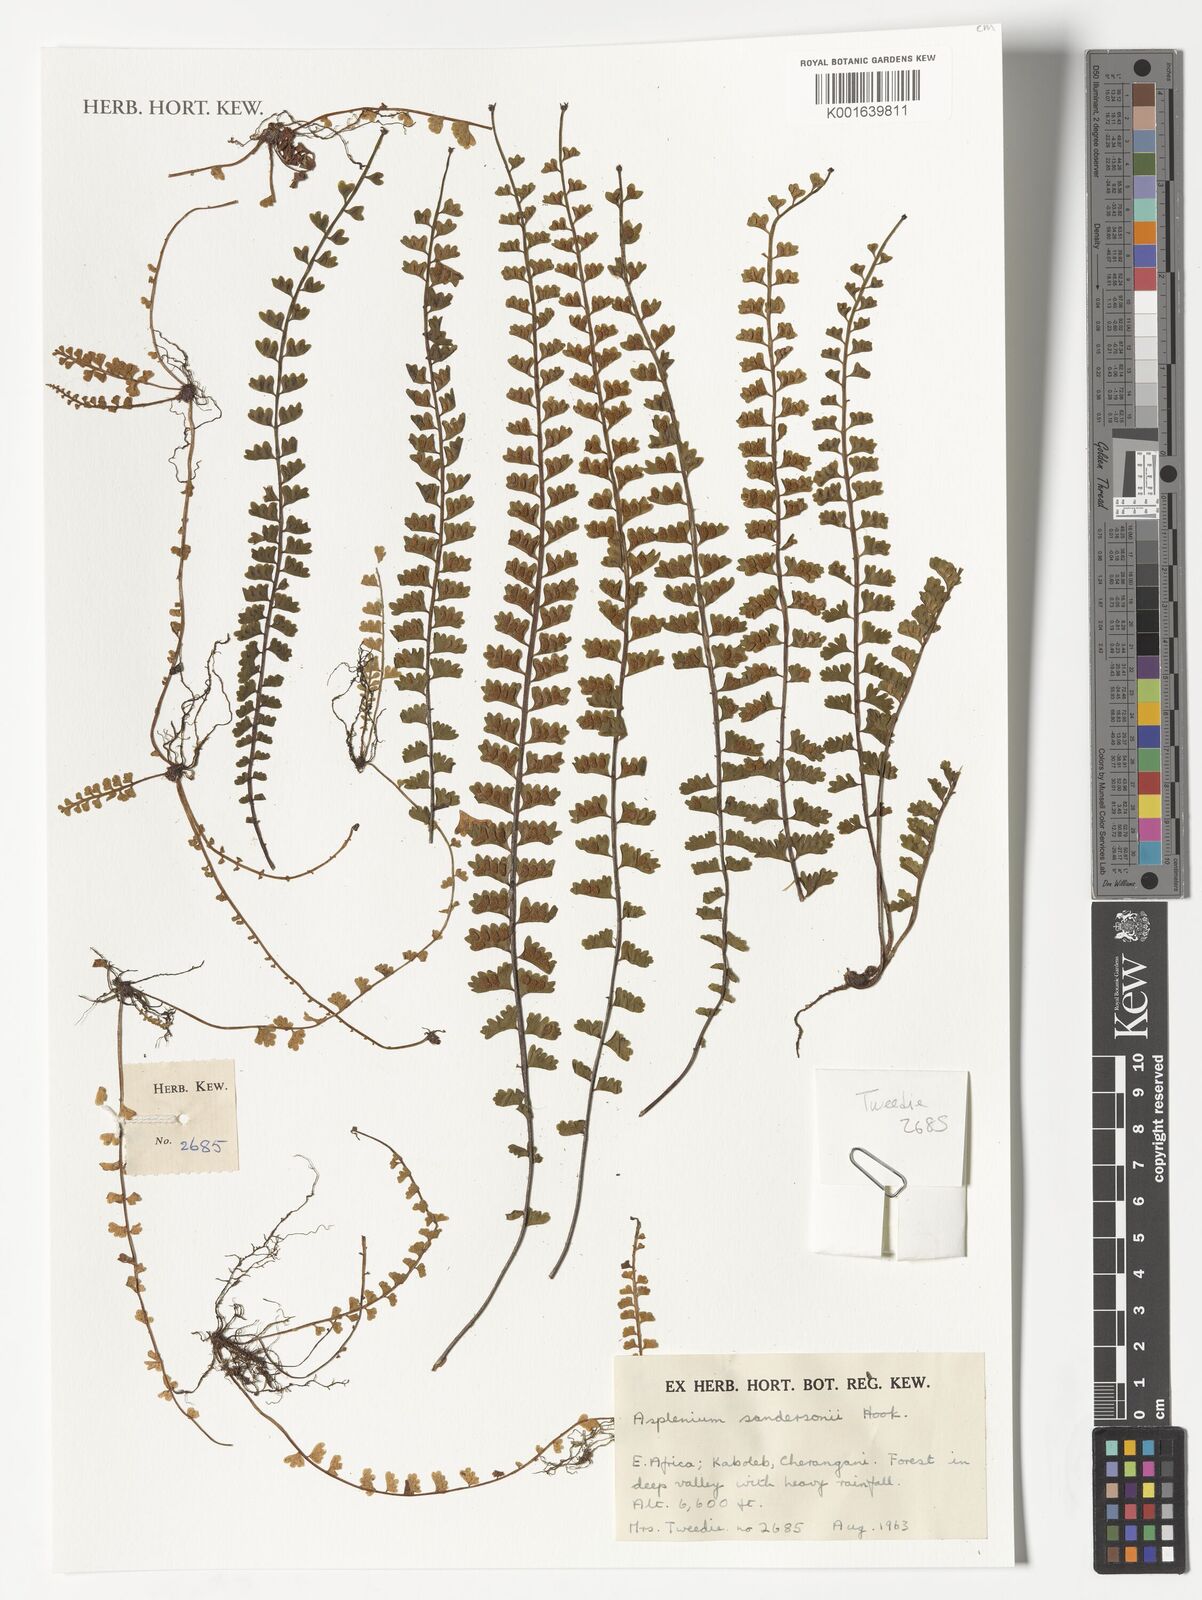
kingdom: Plantae
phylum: Tracheophyta
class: Polypodiopsida
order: Polypodiales
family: Aspleniaceae
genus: Asplenium
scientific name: Asplenium sandersonii
